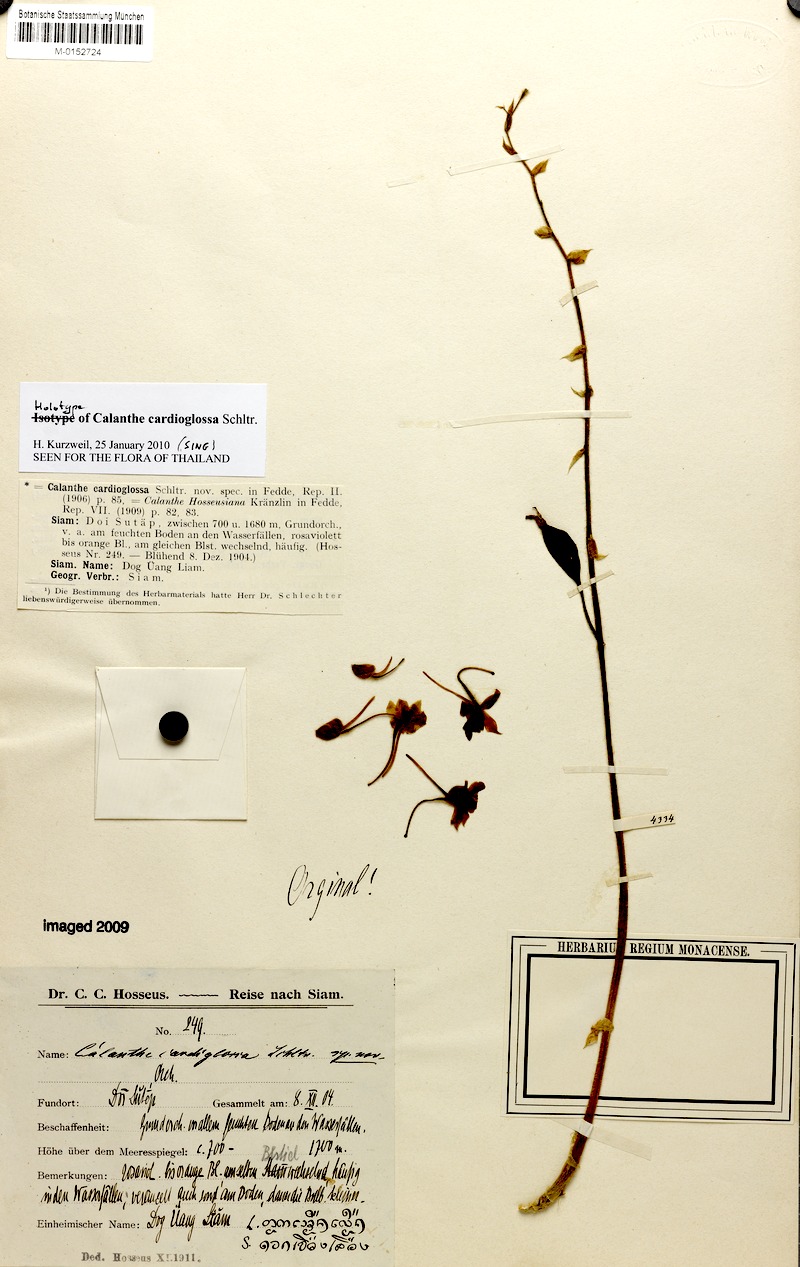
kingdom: Plantae
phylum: Tracheophyta
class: Liliopsida
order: Asparagales
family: Orchidaceae
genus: Calanthe
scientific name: Calanthe cardioglossa
